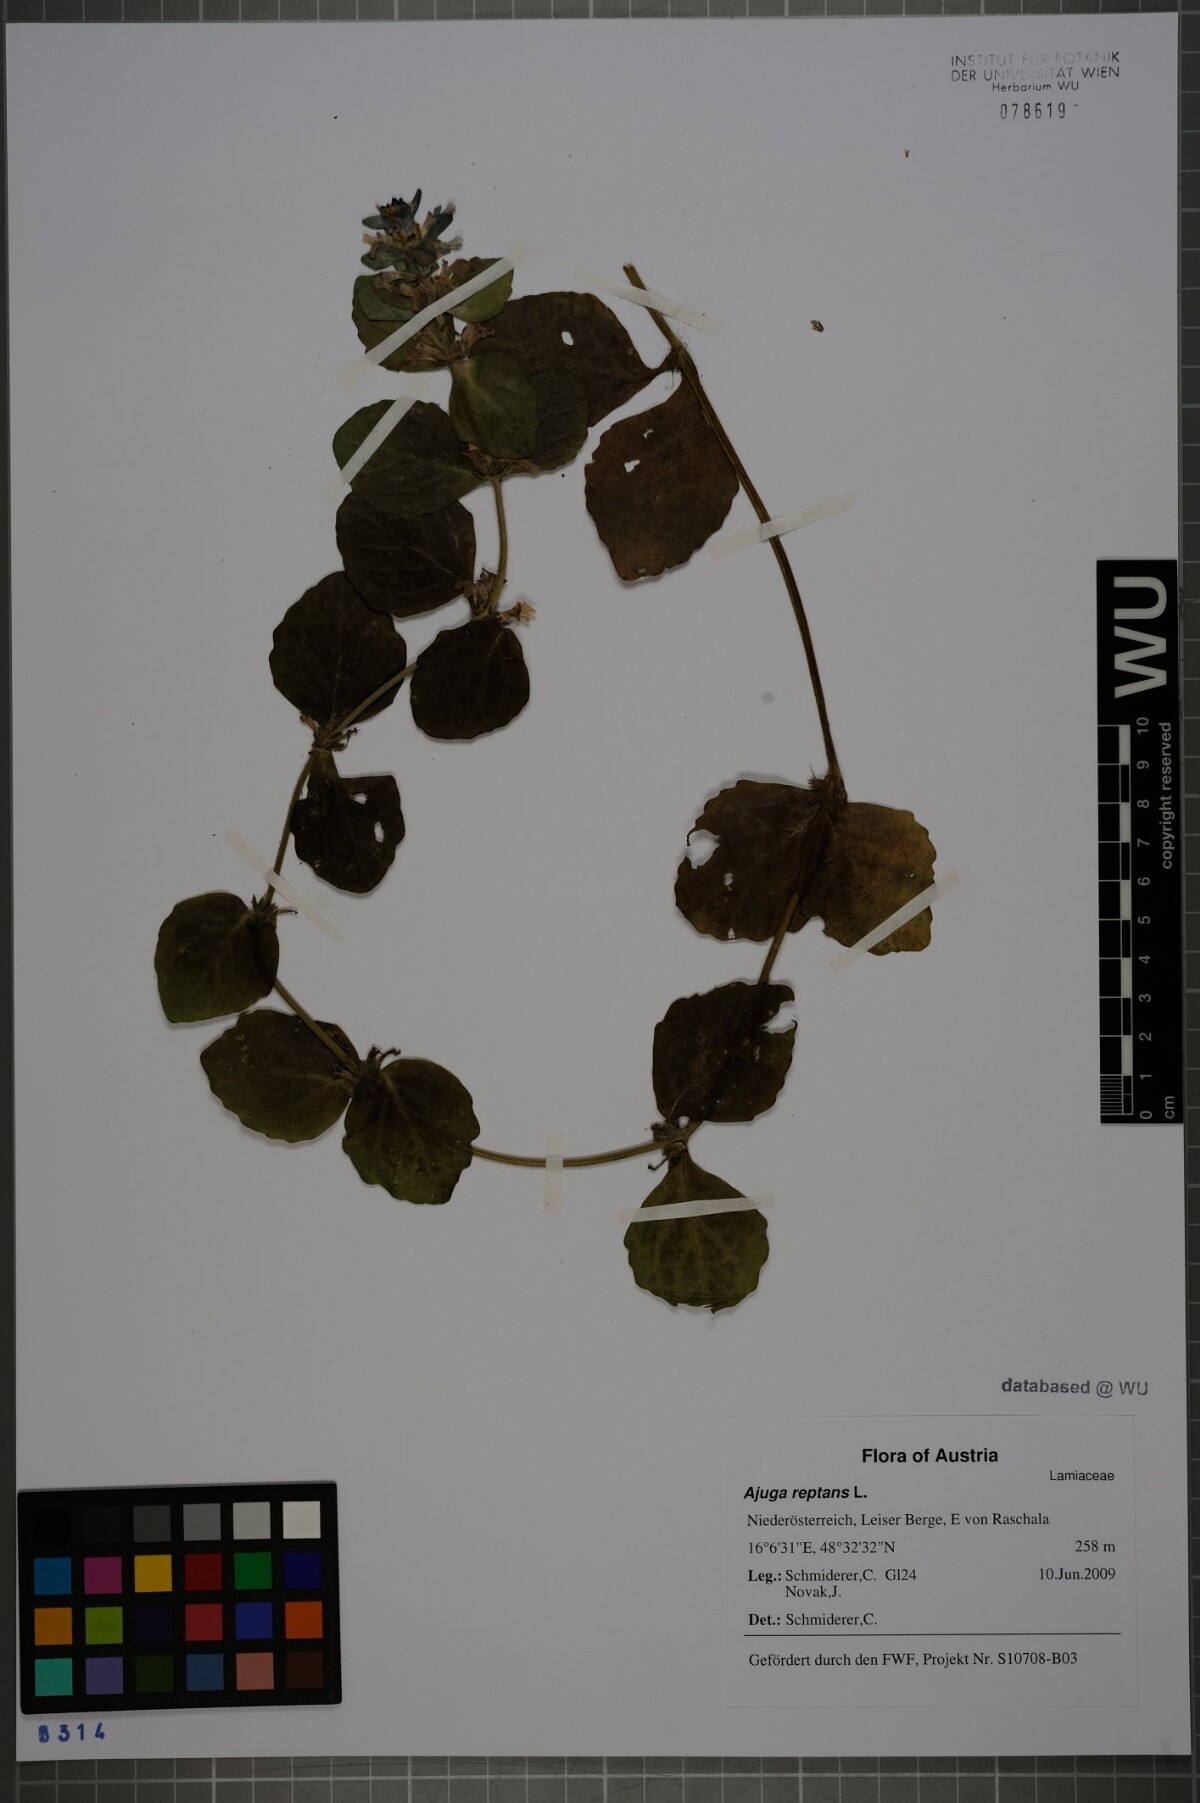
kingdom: Plantae
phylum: Tracheophyta
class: Magnoliopsida
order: Lamiales
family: Lamiaceae
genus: Ajuga
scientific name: Ajuga reptans
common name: Bugle
